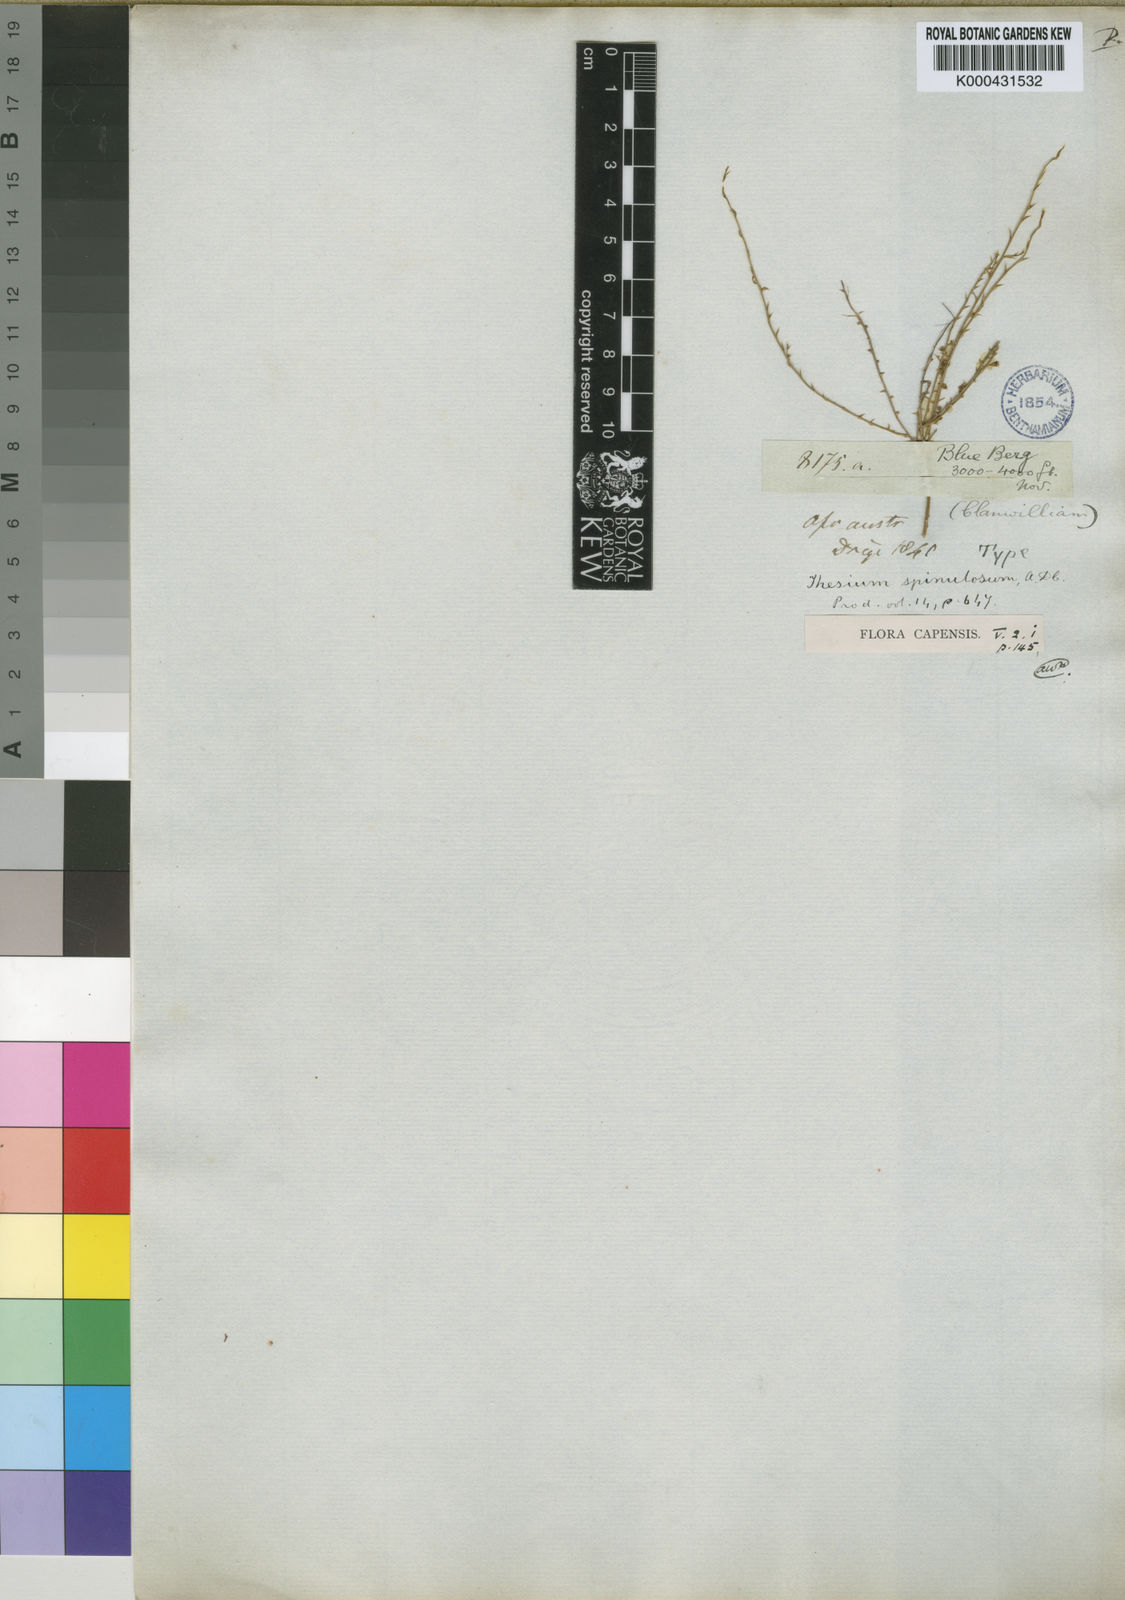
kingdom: Plantae
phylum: Tracheophyta
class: Magnoliopsida
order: Santalales
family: Thesiaceae
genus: Thesium
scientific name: Thesium spinulosum
